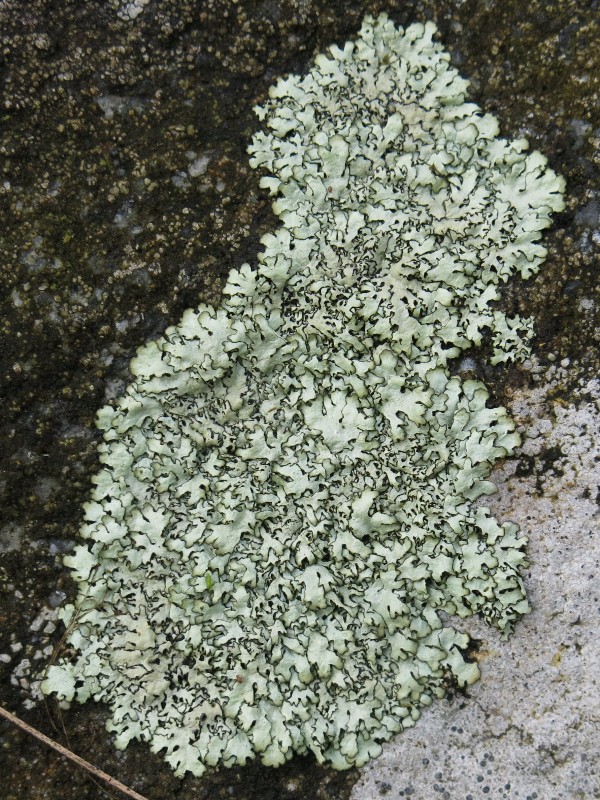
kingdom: Fungi
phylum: Ascomycota
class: Lecanoromycetes
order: Lecanorales
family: Parmeliaceae
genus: Xanthoparmelia
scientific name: Xanthoparmelia stenophylla
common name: Shingled rock shield
